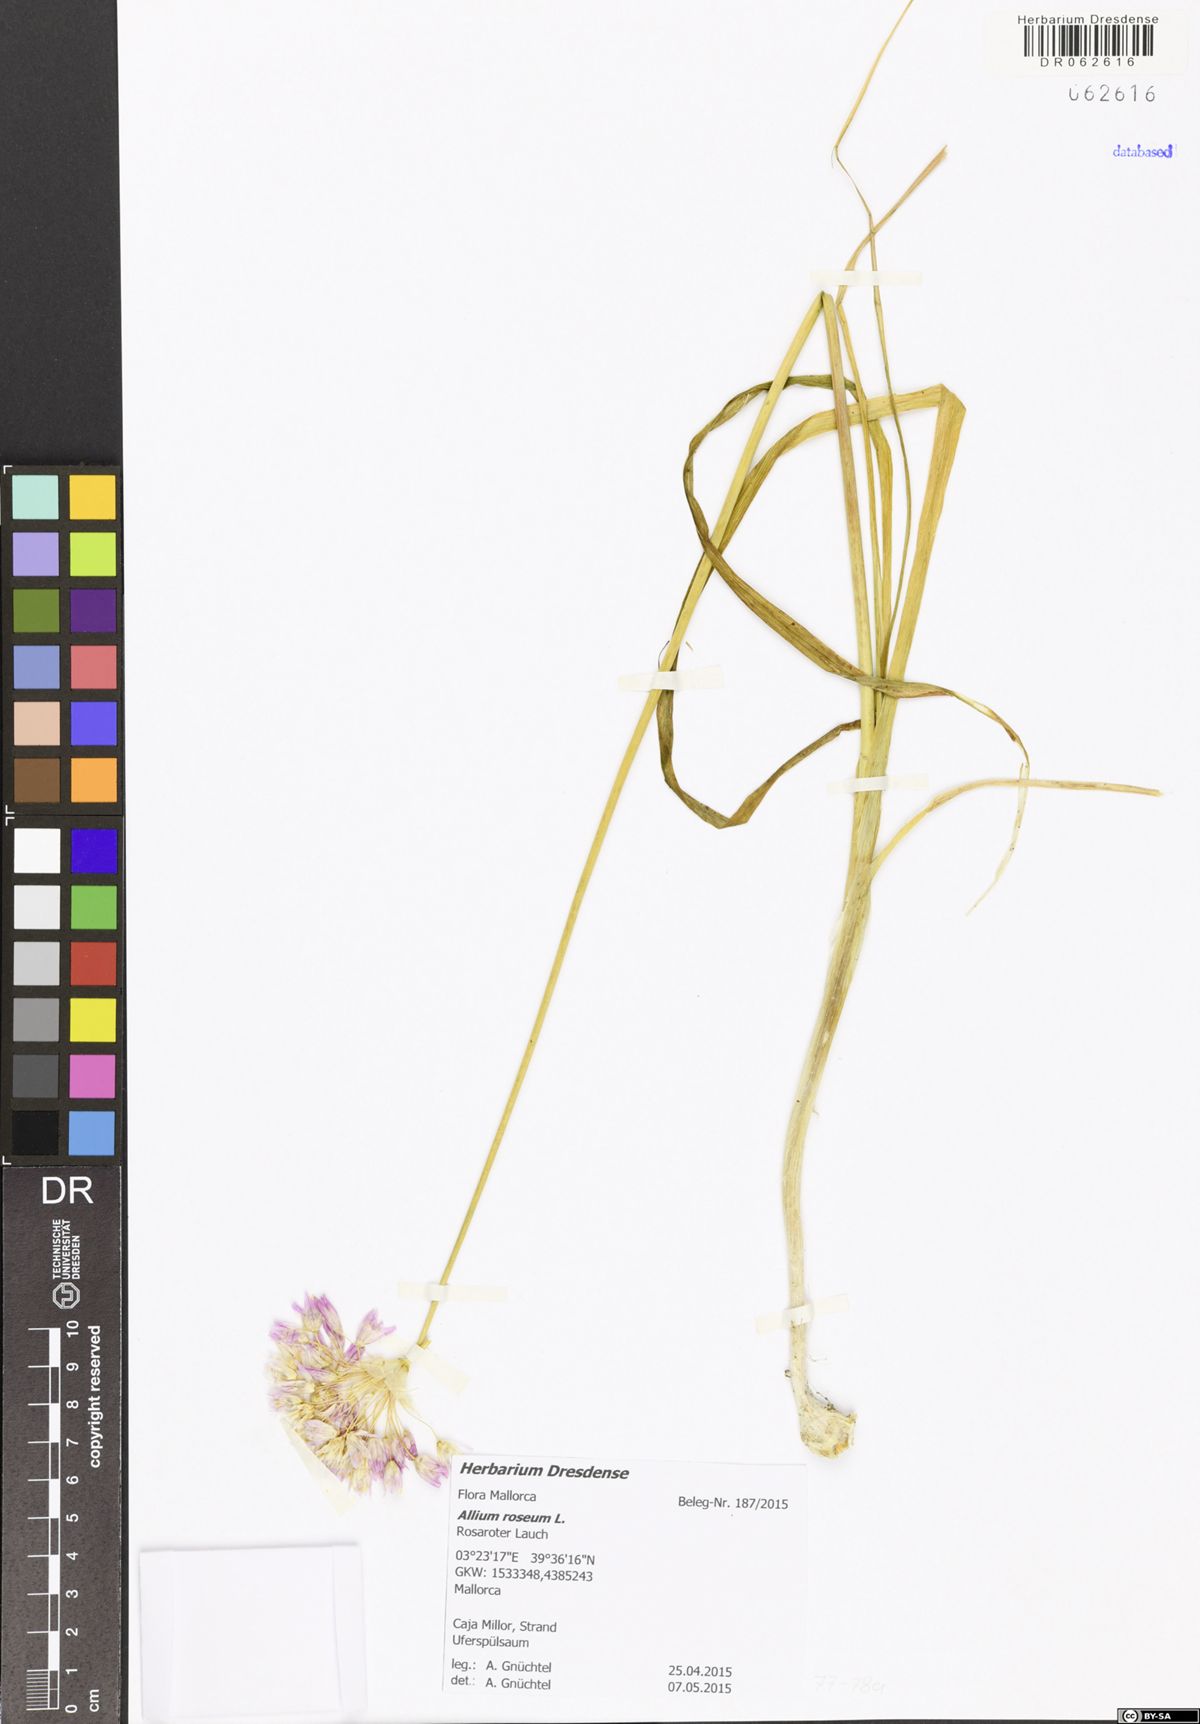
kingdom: Plantae
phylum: Tracheophyta
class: Liliopsida
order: Asparagales
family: Amaryllidaceae
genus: Allium
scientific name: Allium roseum
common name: Rosy garlic
